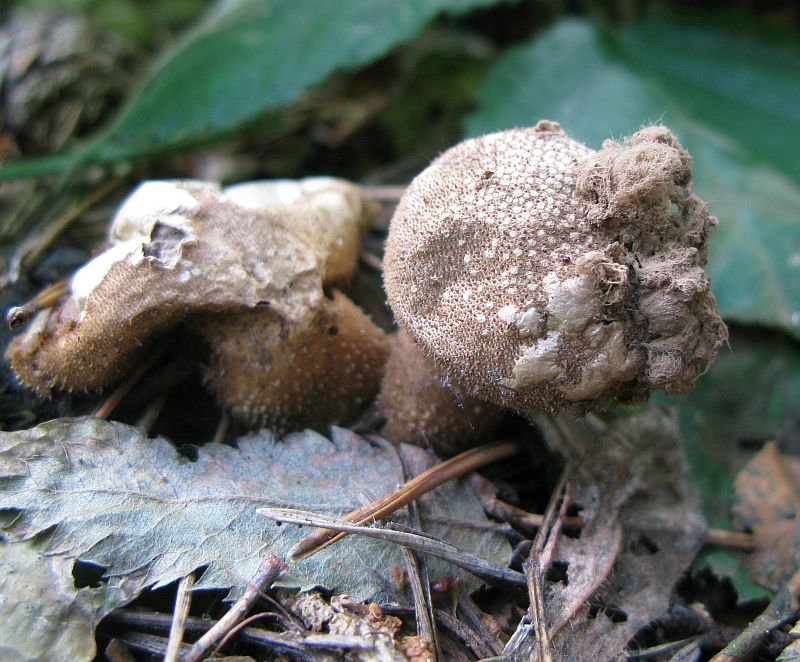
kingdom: Fungi
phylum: Basidiomycota
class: Agaricomycetes
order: Agaricales
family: Lycoperdaceae
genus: Lycoperdon
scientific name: Lycoperdon nigrescens
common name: sortagtig støvbold
